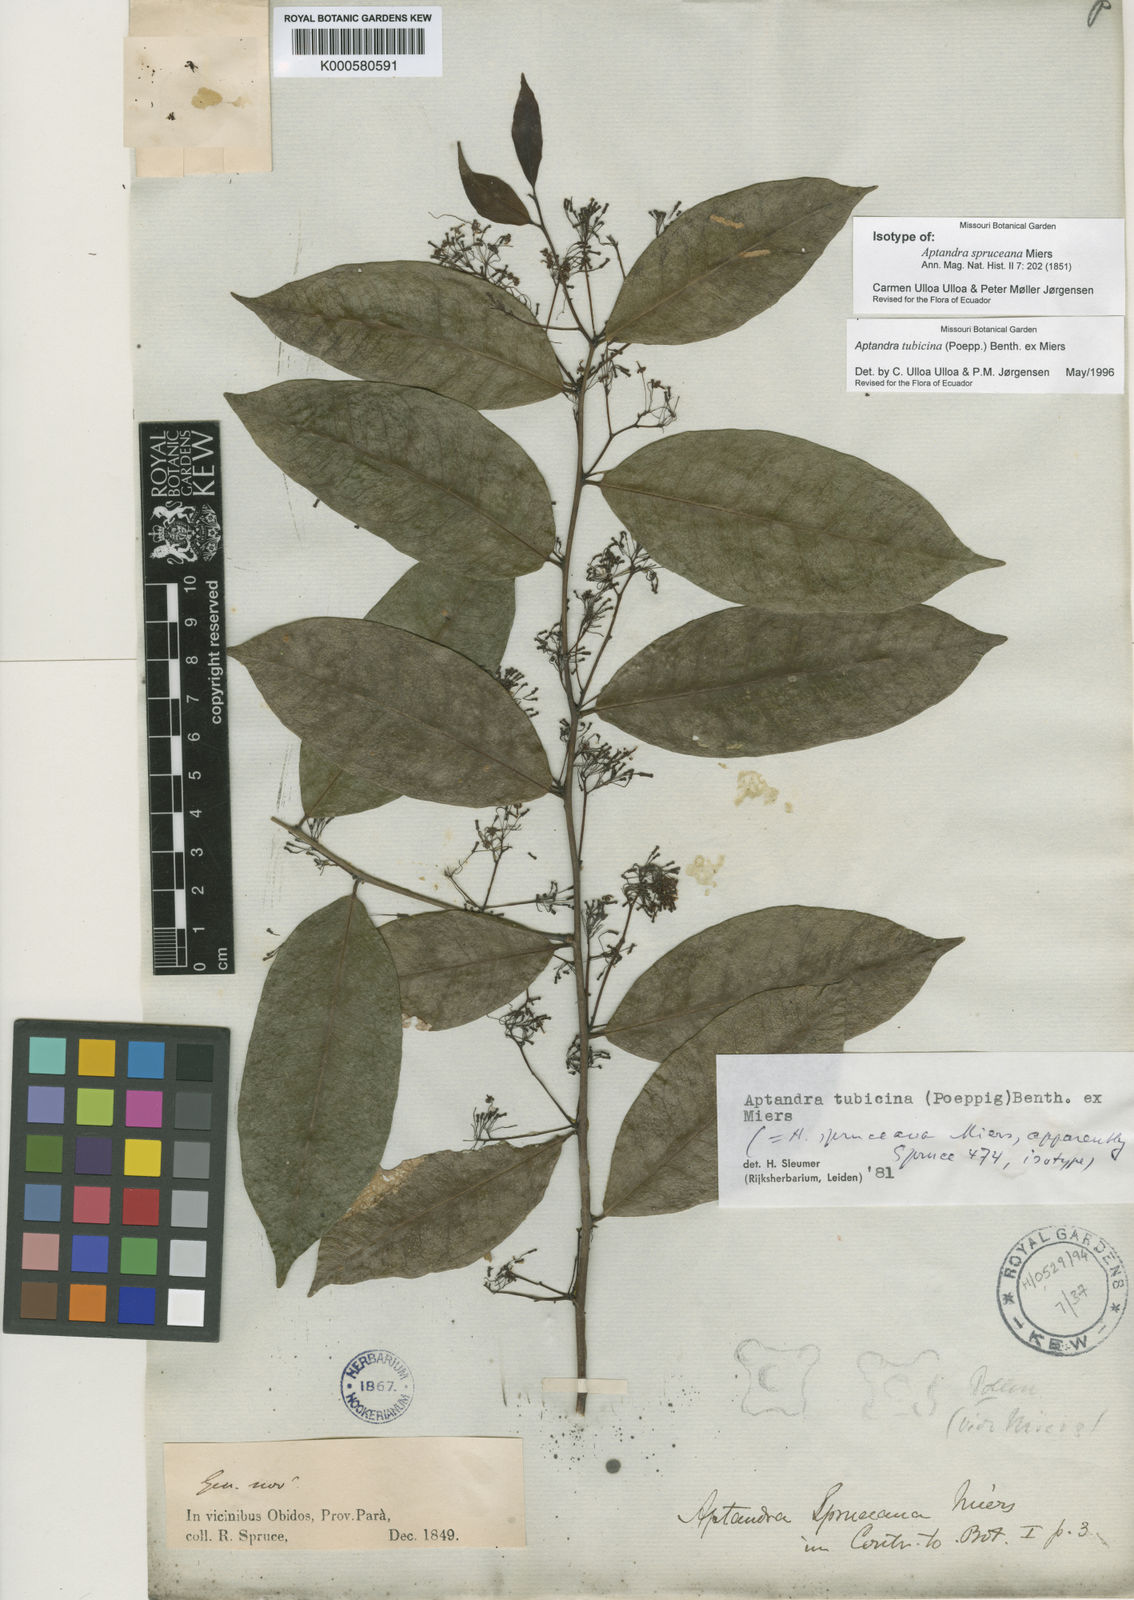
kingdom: Plantae
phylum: Tracheophyta
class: Magnoliopsida
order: Santalales
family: Aptandraceae
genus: Aptandra
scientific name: Aptandra tubicina
